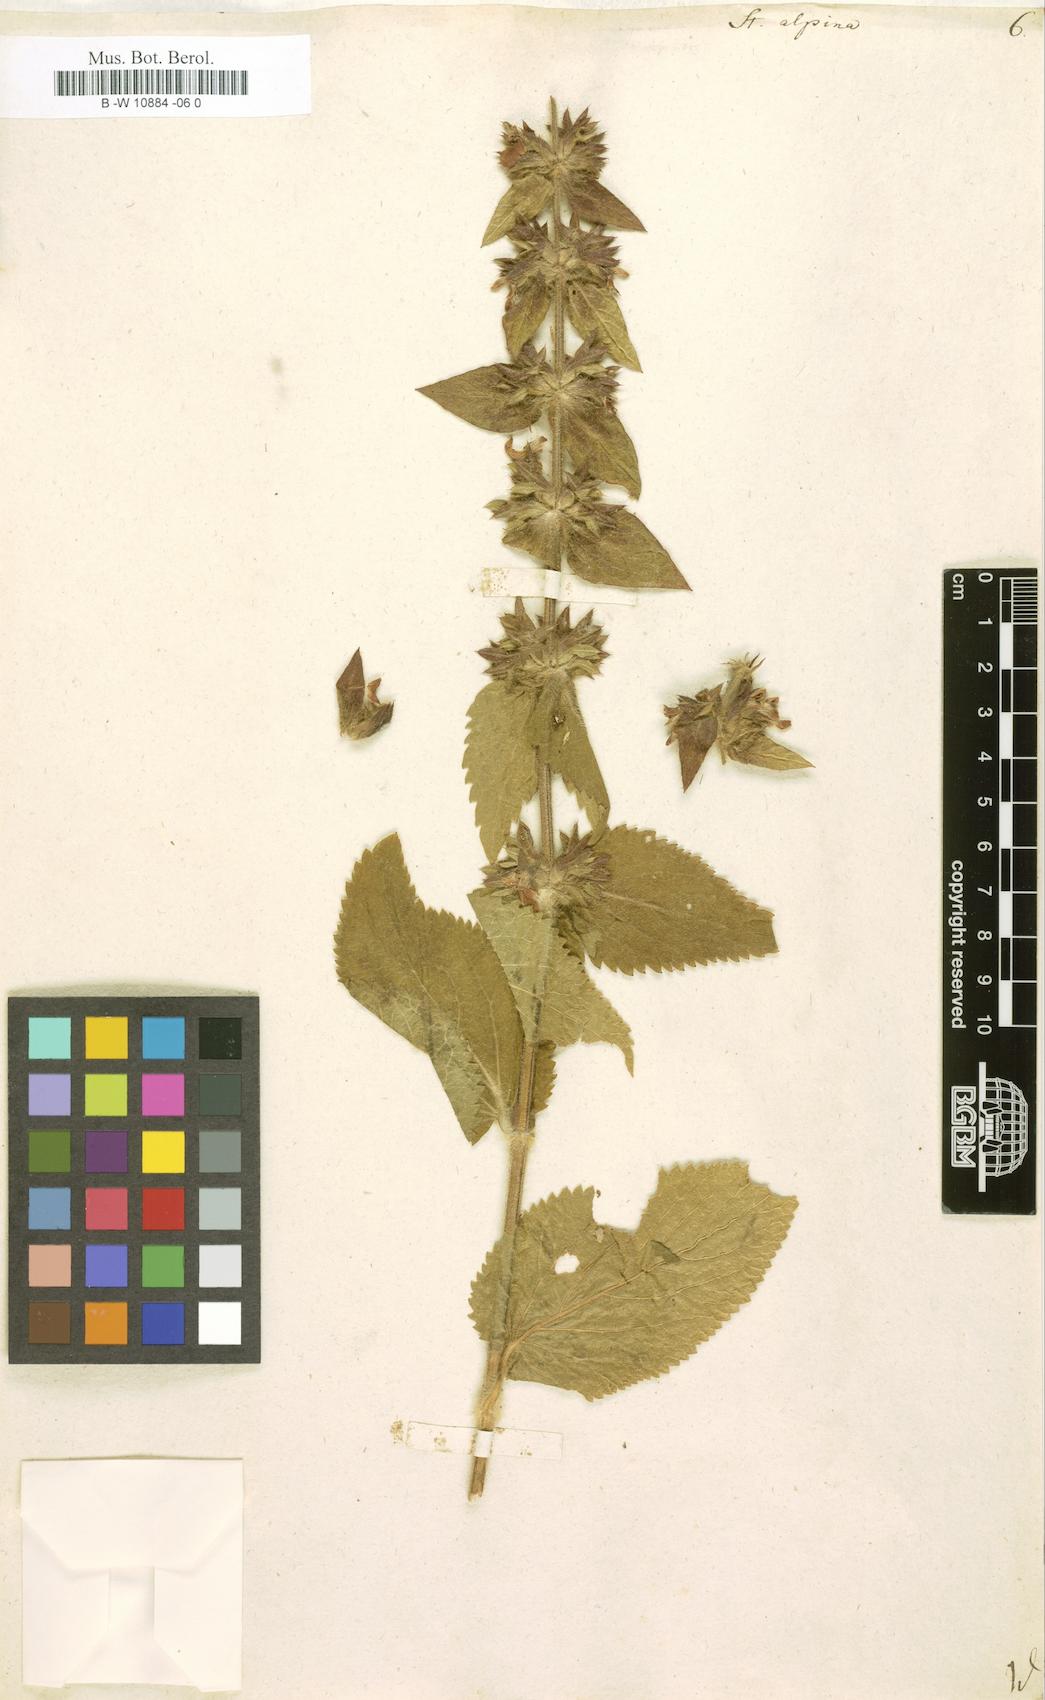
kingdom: Plantae
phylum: Tracheophyta
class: Magnoliopsida
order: Lamiales
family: Lamiaceae
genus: Stachys
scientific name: Stachys alpina
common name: Limestone woundwort
